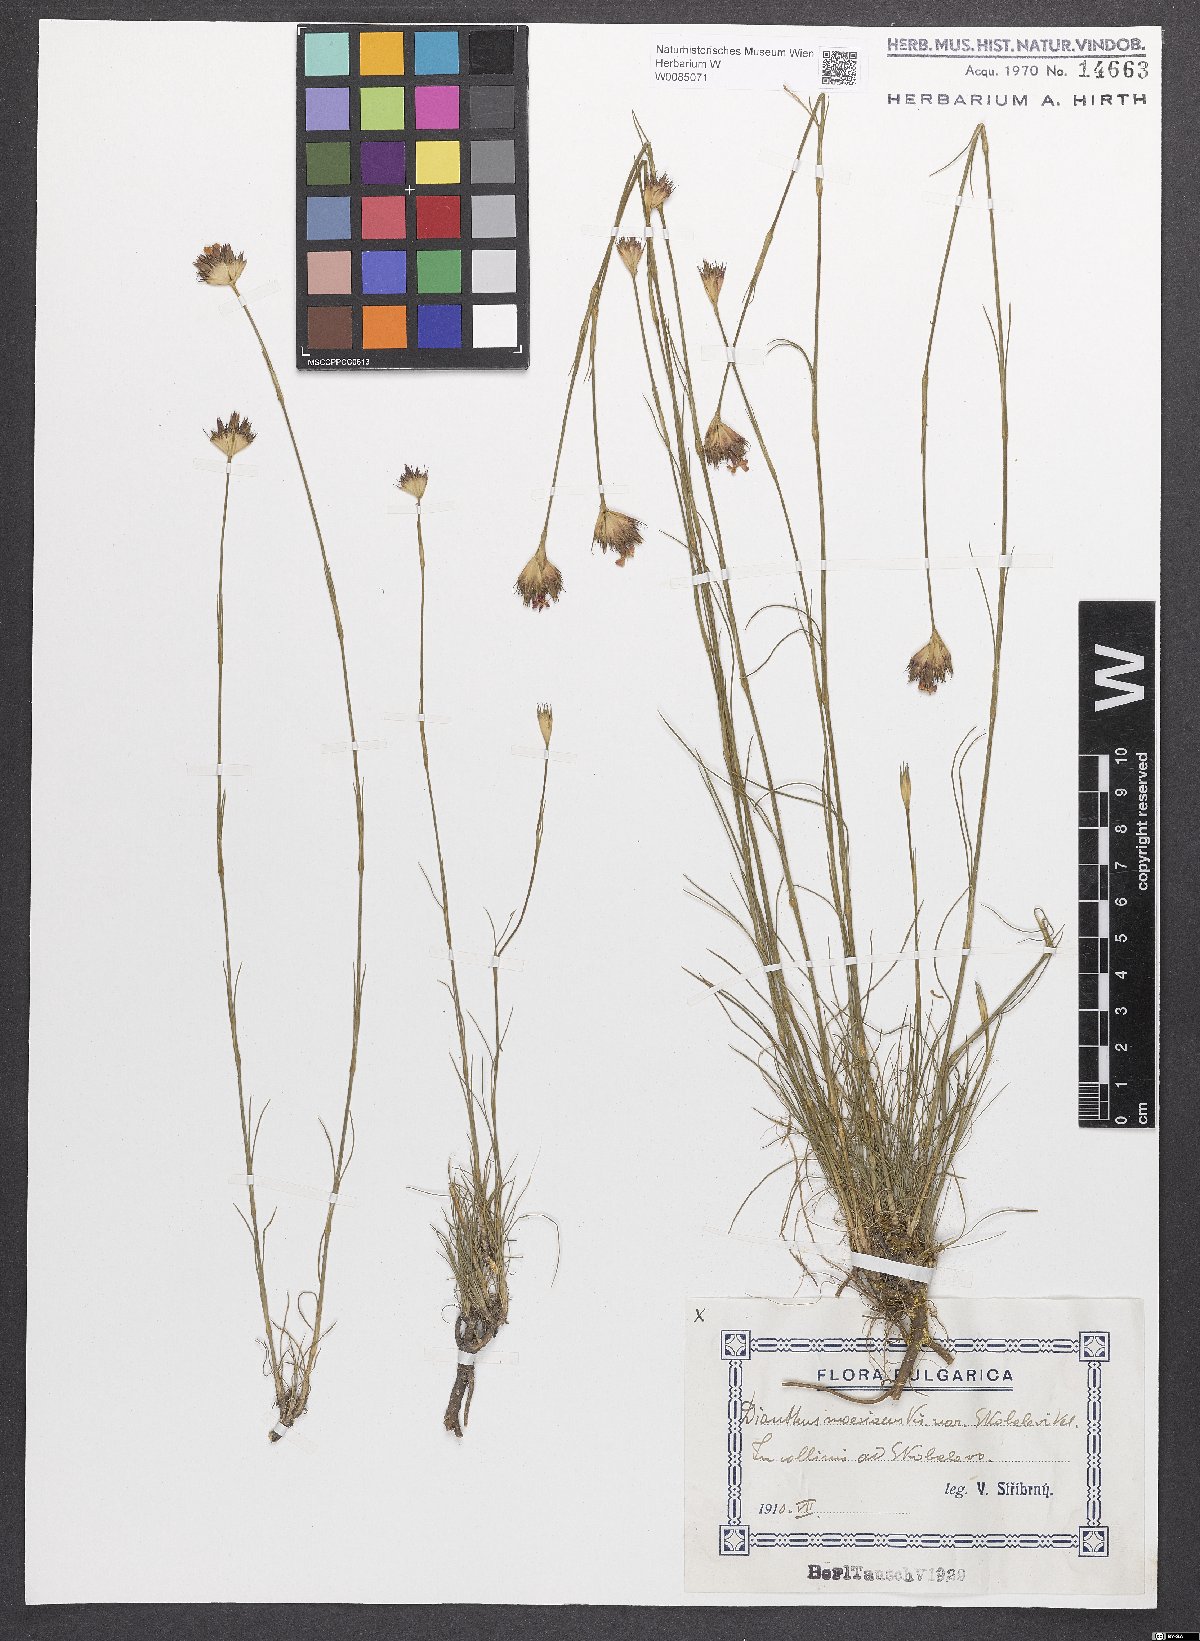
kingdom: Plantae
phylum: Tracheophyta
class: Magnoliopsida
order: Caryophyllales
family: Caryophyllaceae
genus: Dianthus
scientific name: Dianthus moesiacus
